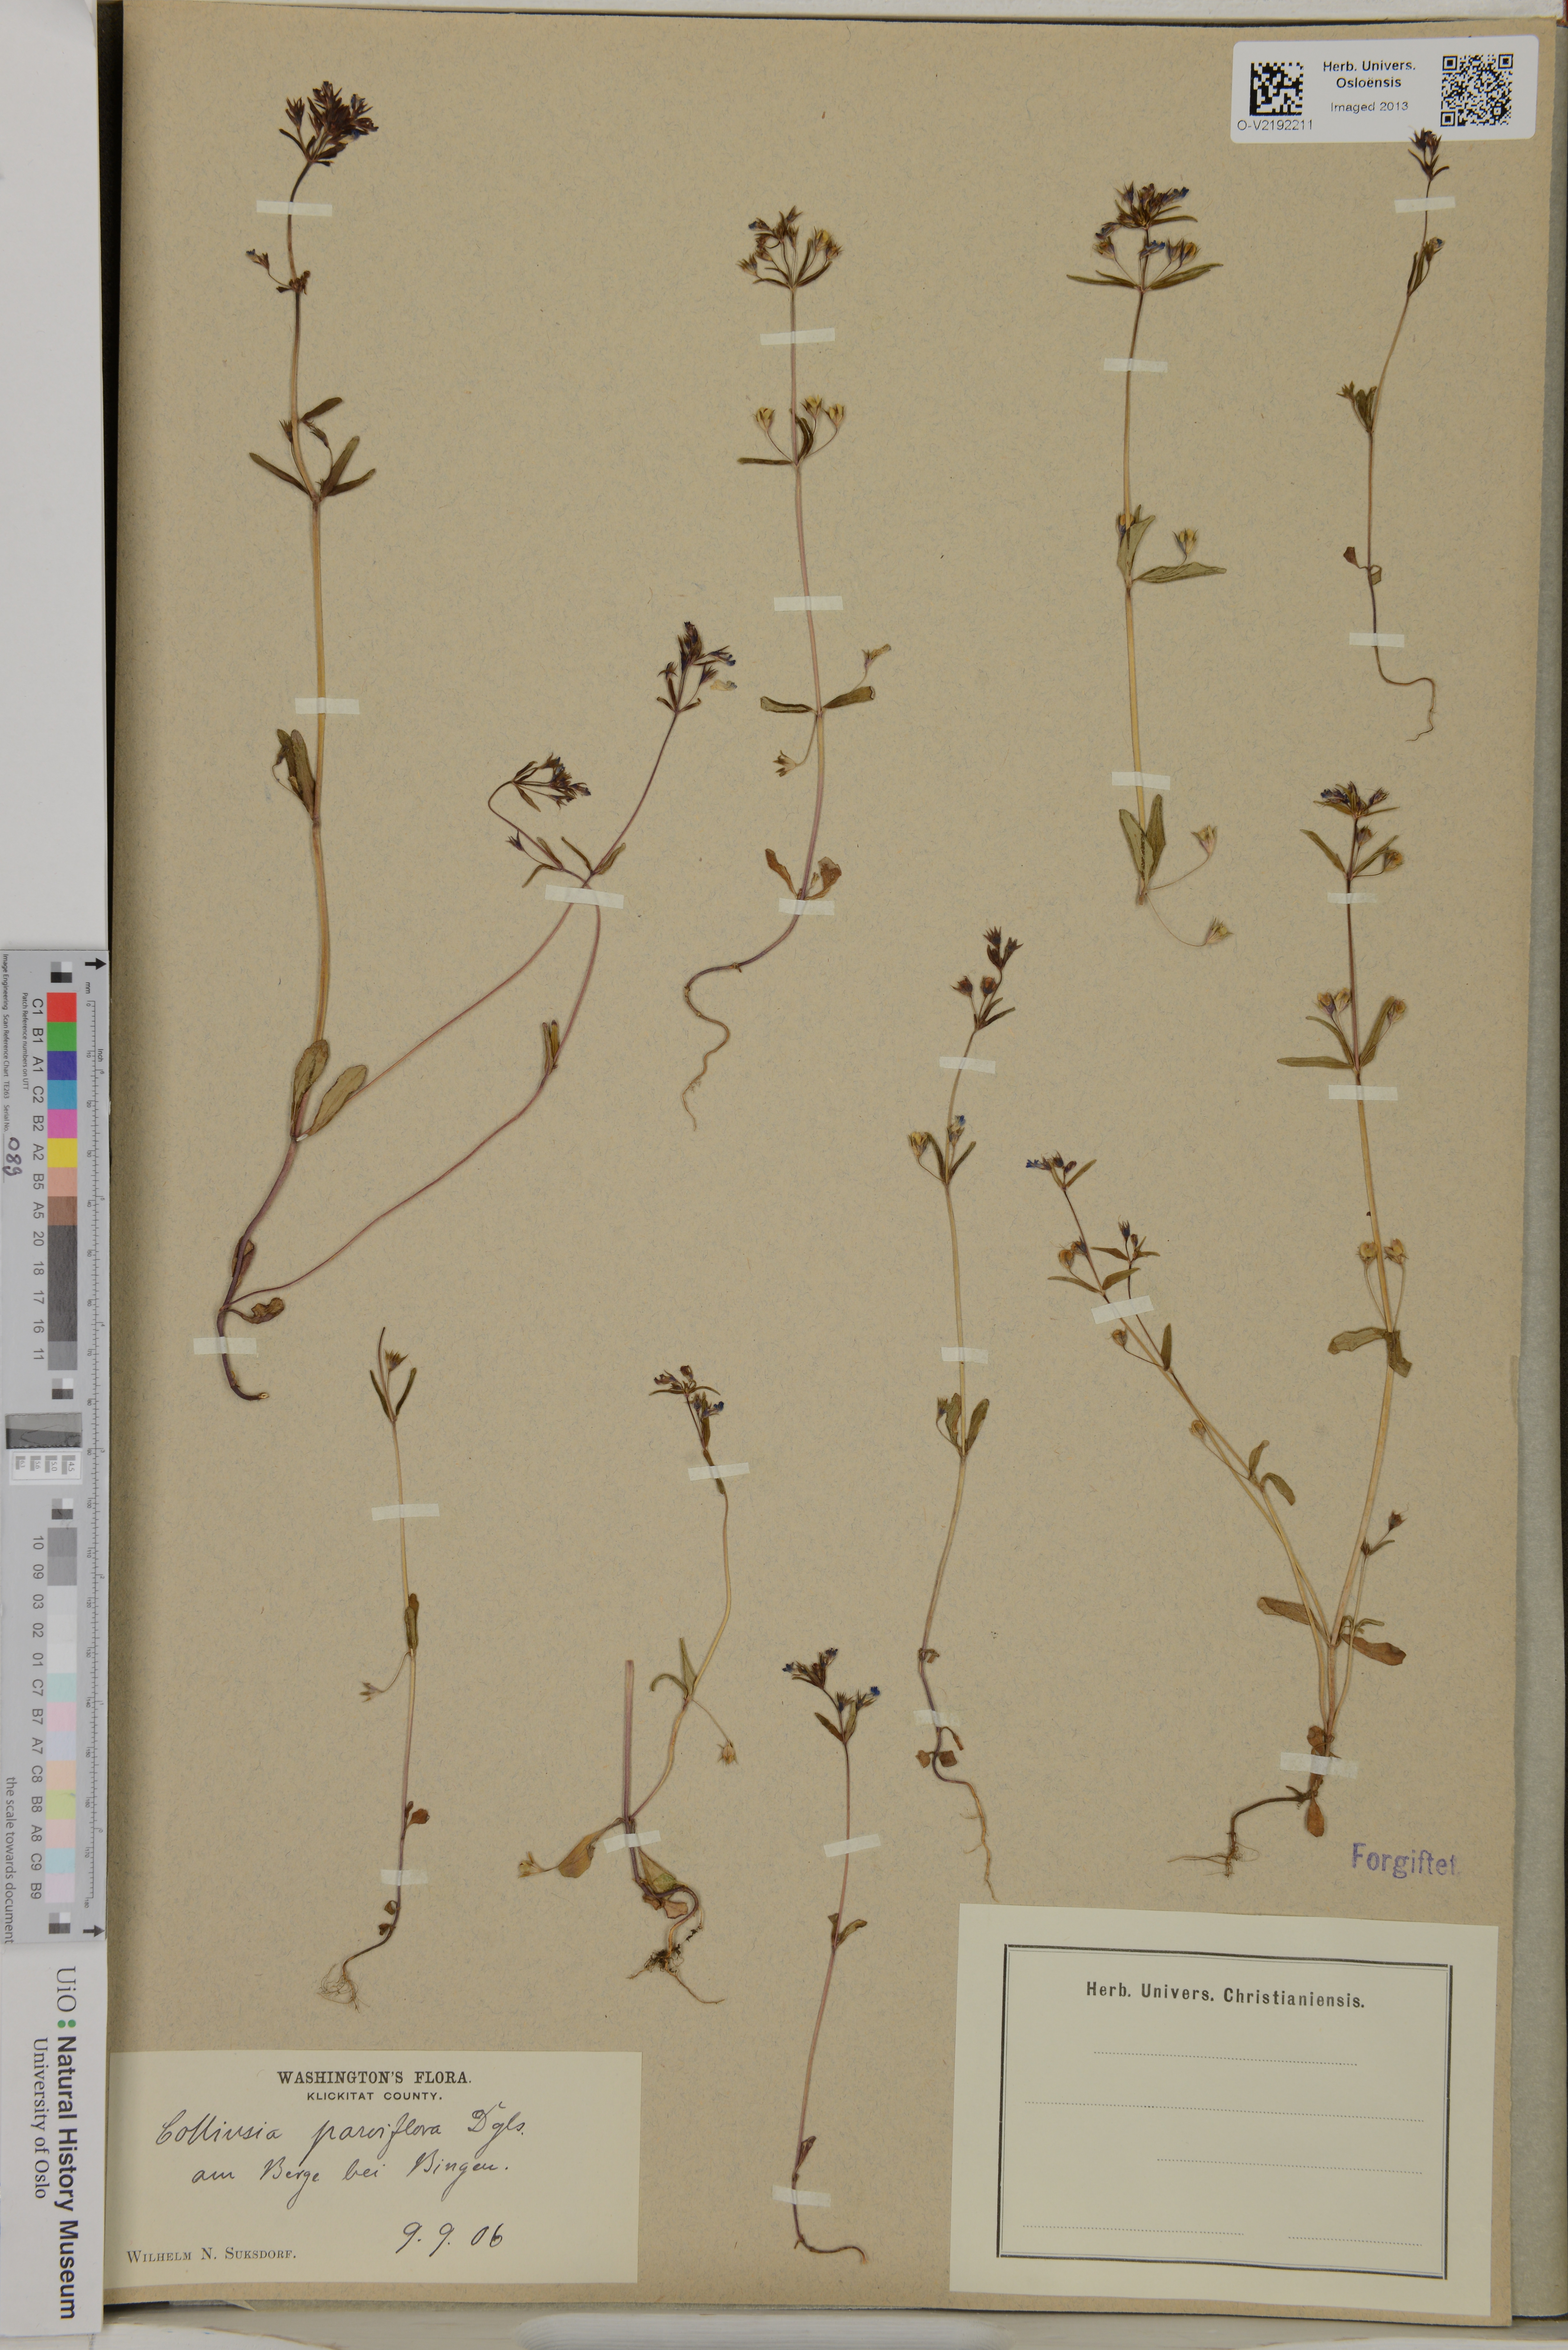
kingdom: Plantae
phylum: Tracheophyta
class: Magnoliopsida
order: Lamiales
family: Plantaginaceae
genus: Collinsia
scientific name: Collinsia parviflora
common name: Blue-lips
